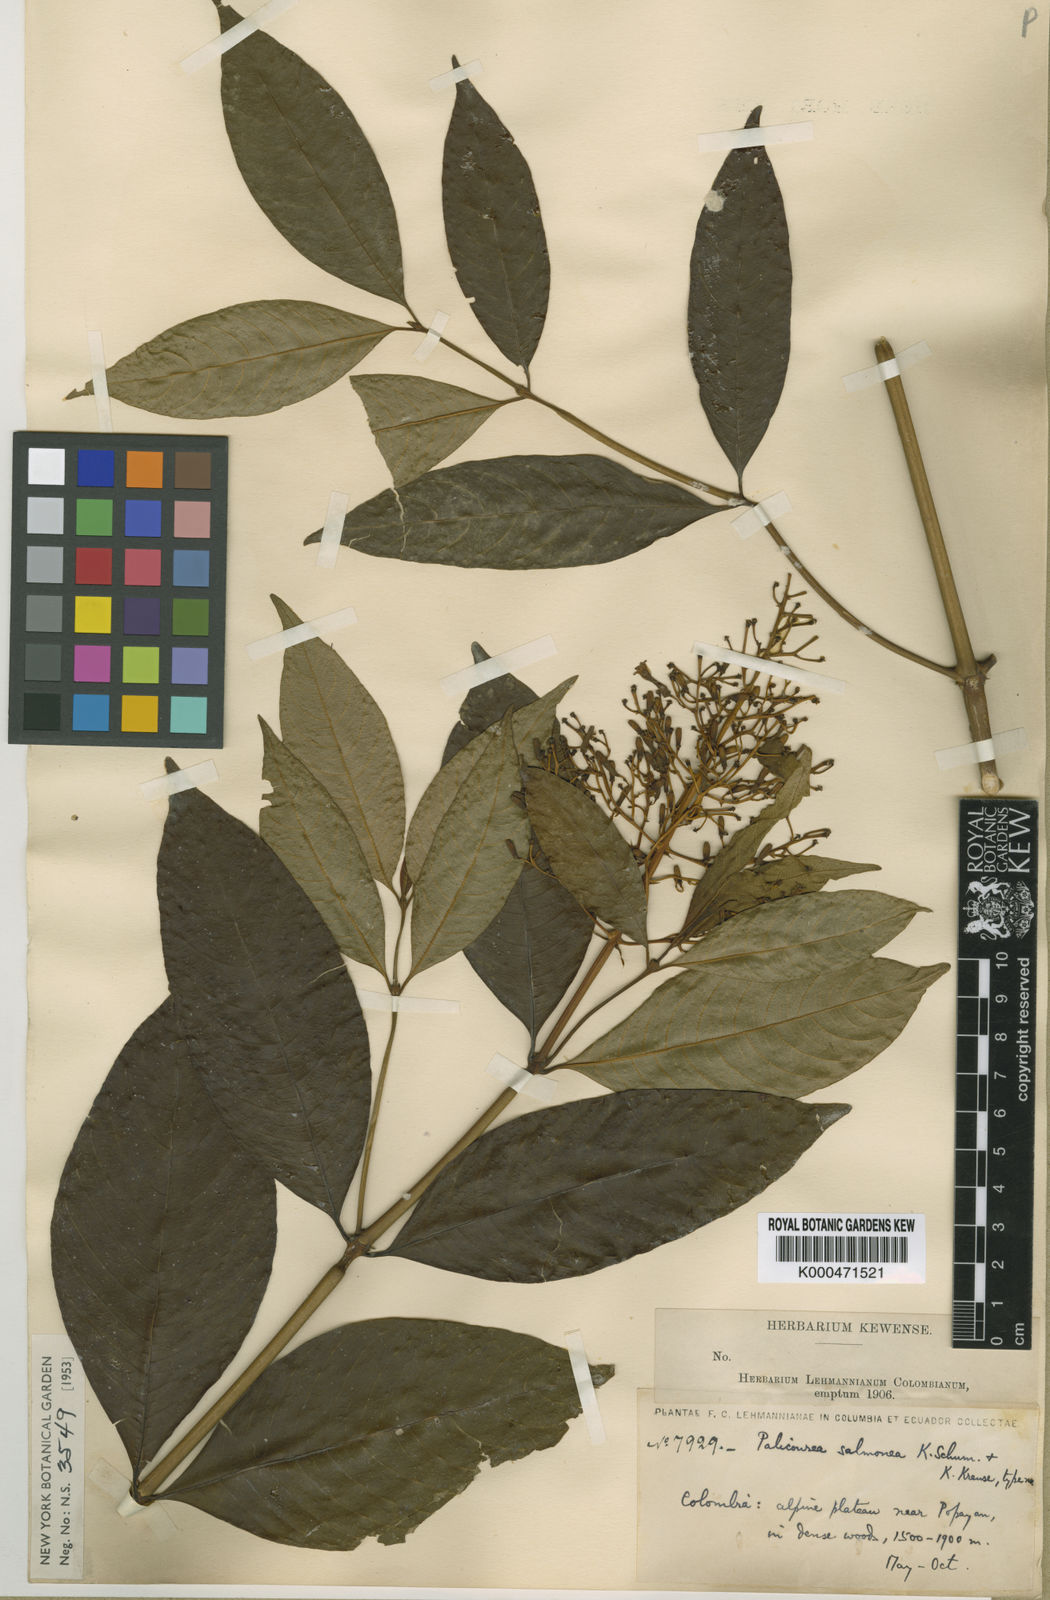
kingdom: Plantae
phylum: Tracheophyta
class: Magnoliopsida
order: Gentianales
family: Rubiaceae
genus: Palicourea
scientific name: Palicourea thyrsiflora
